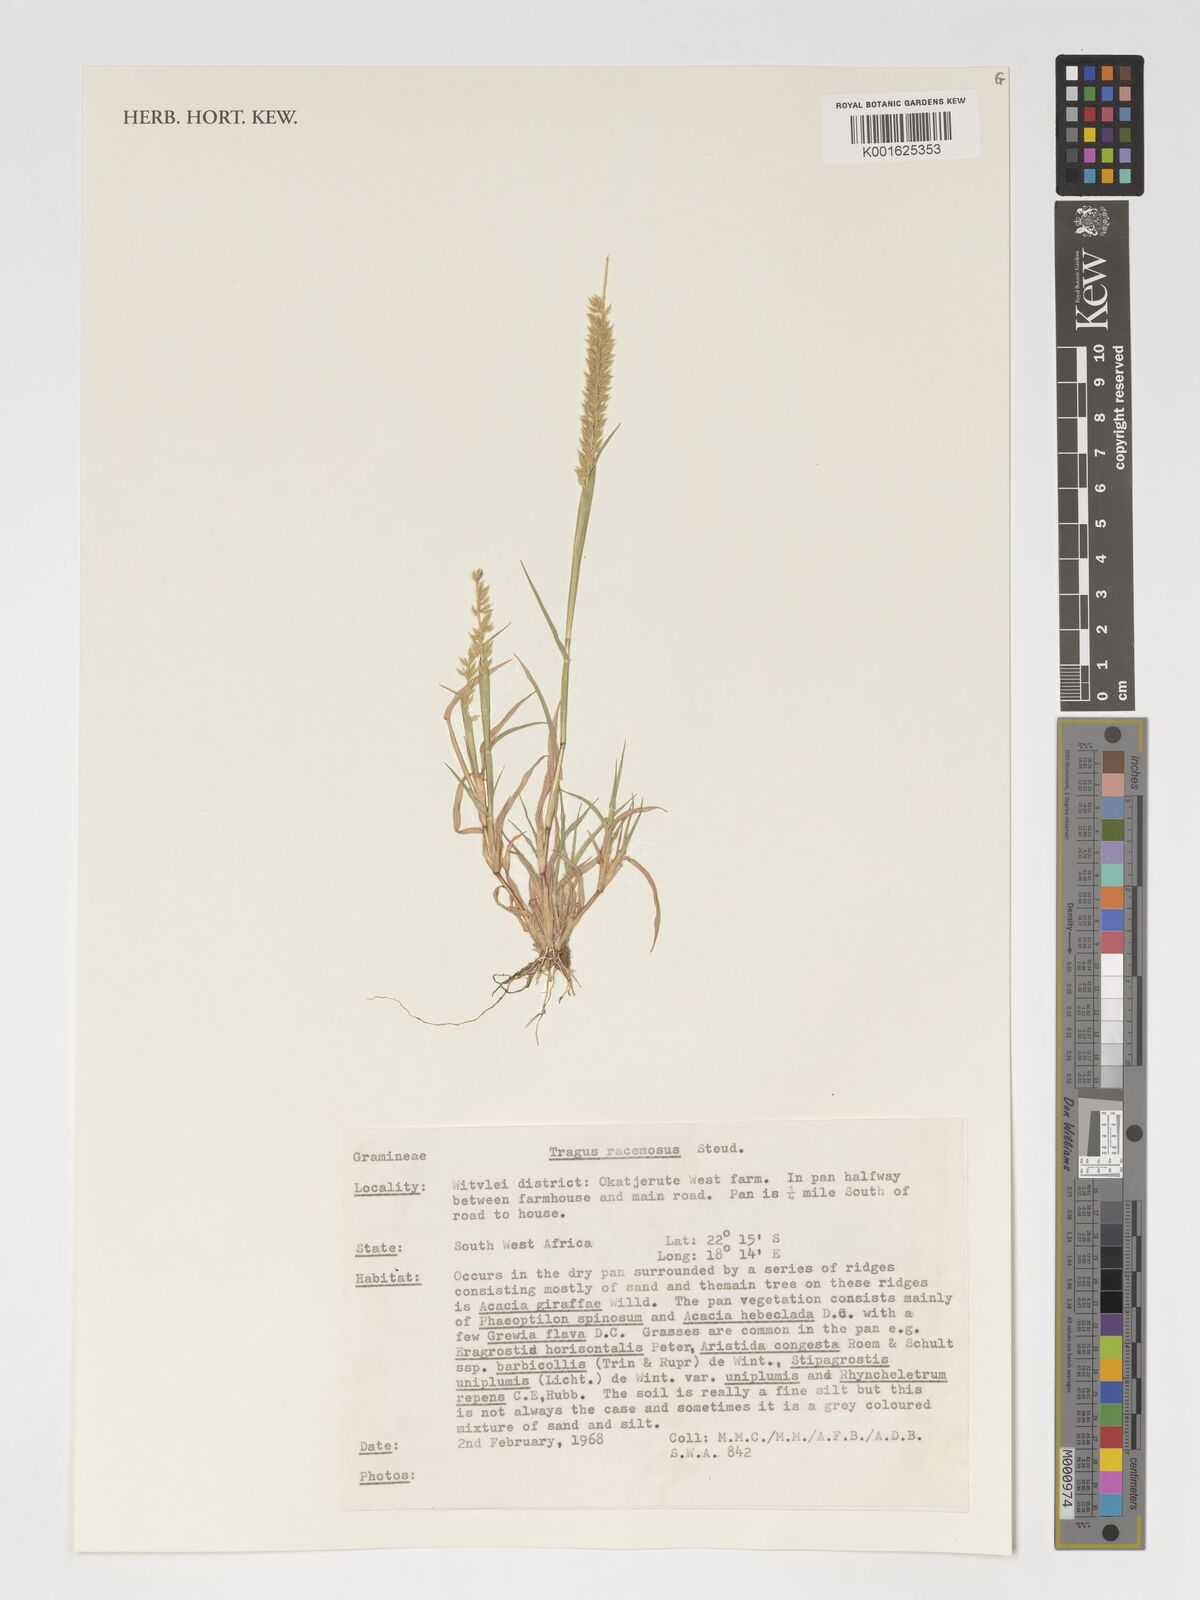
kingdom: Plantae
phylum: Tracheophyta
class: Liliopsida
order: Poales
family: Poaceae
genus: Tragus
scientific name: Tragus racemosus
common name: European bur-grass
